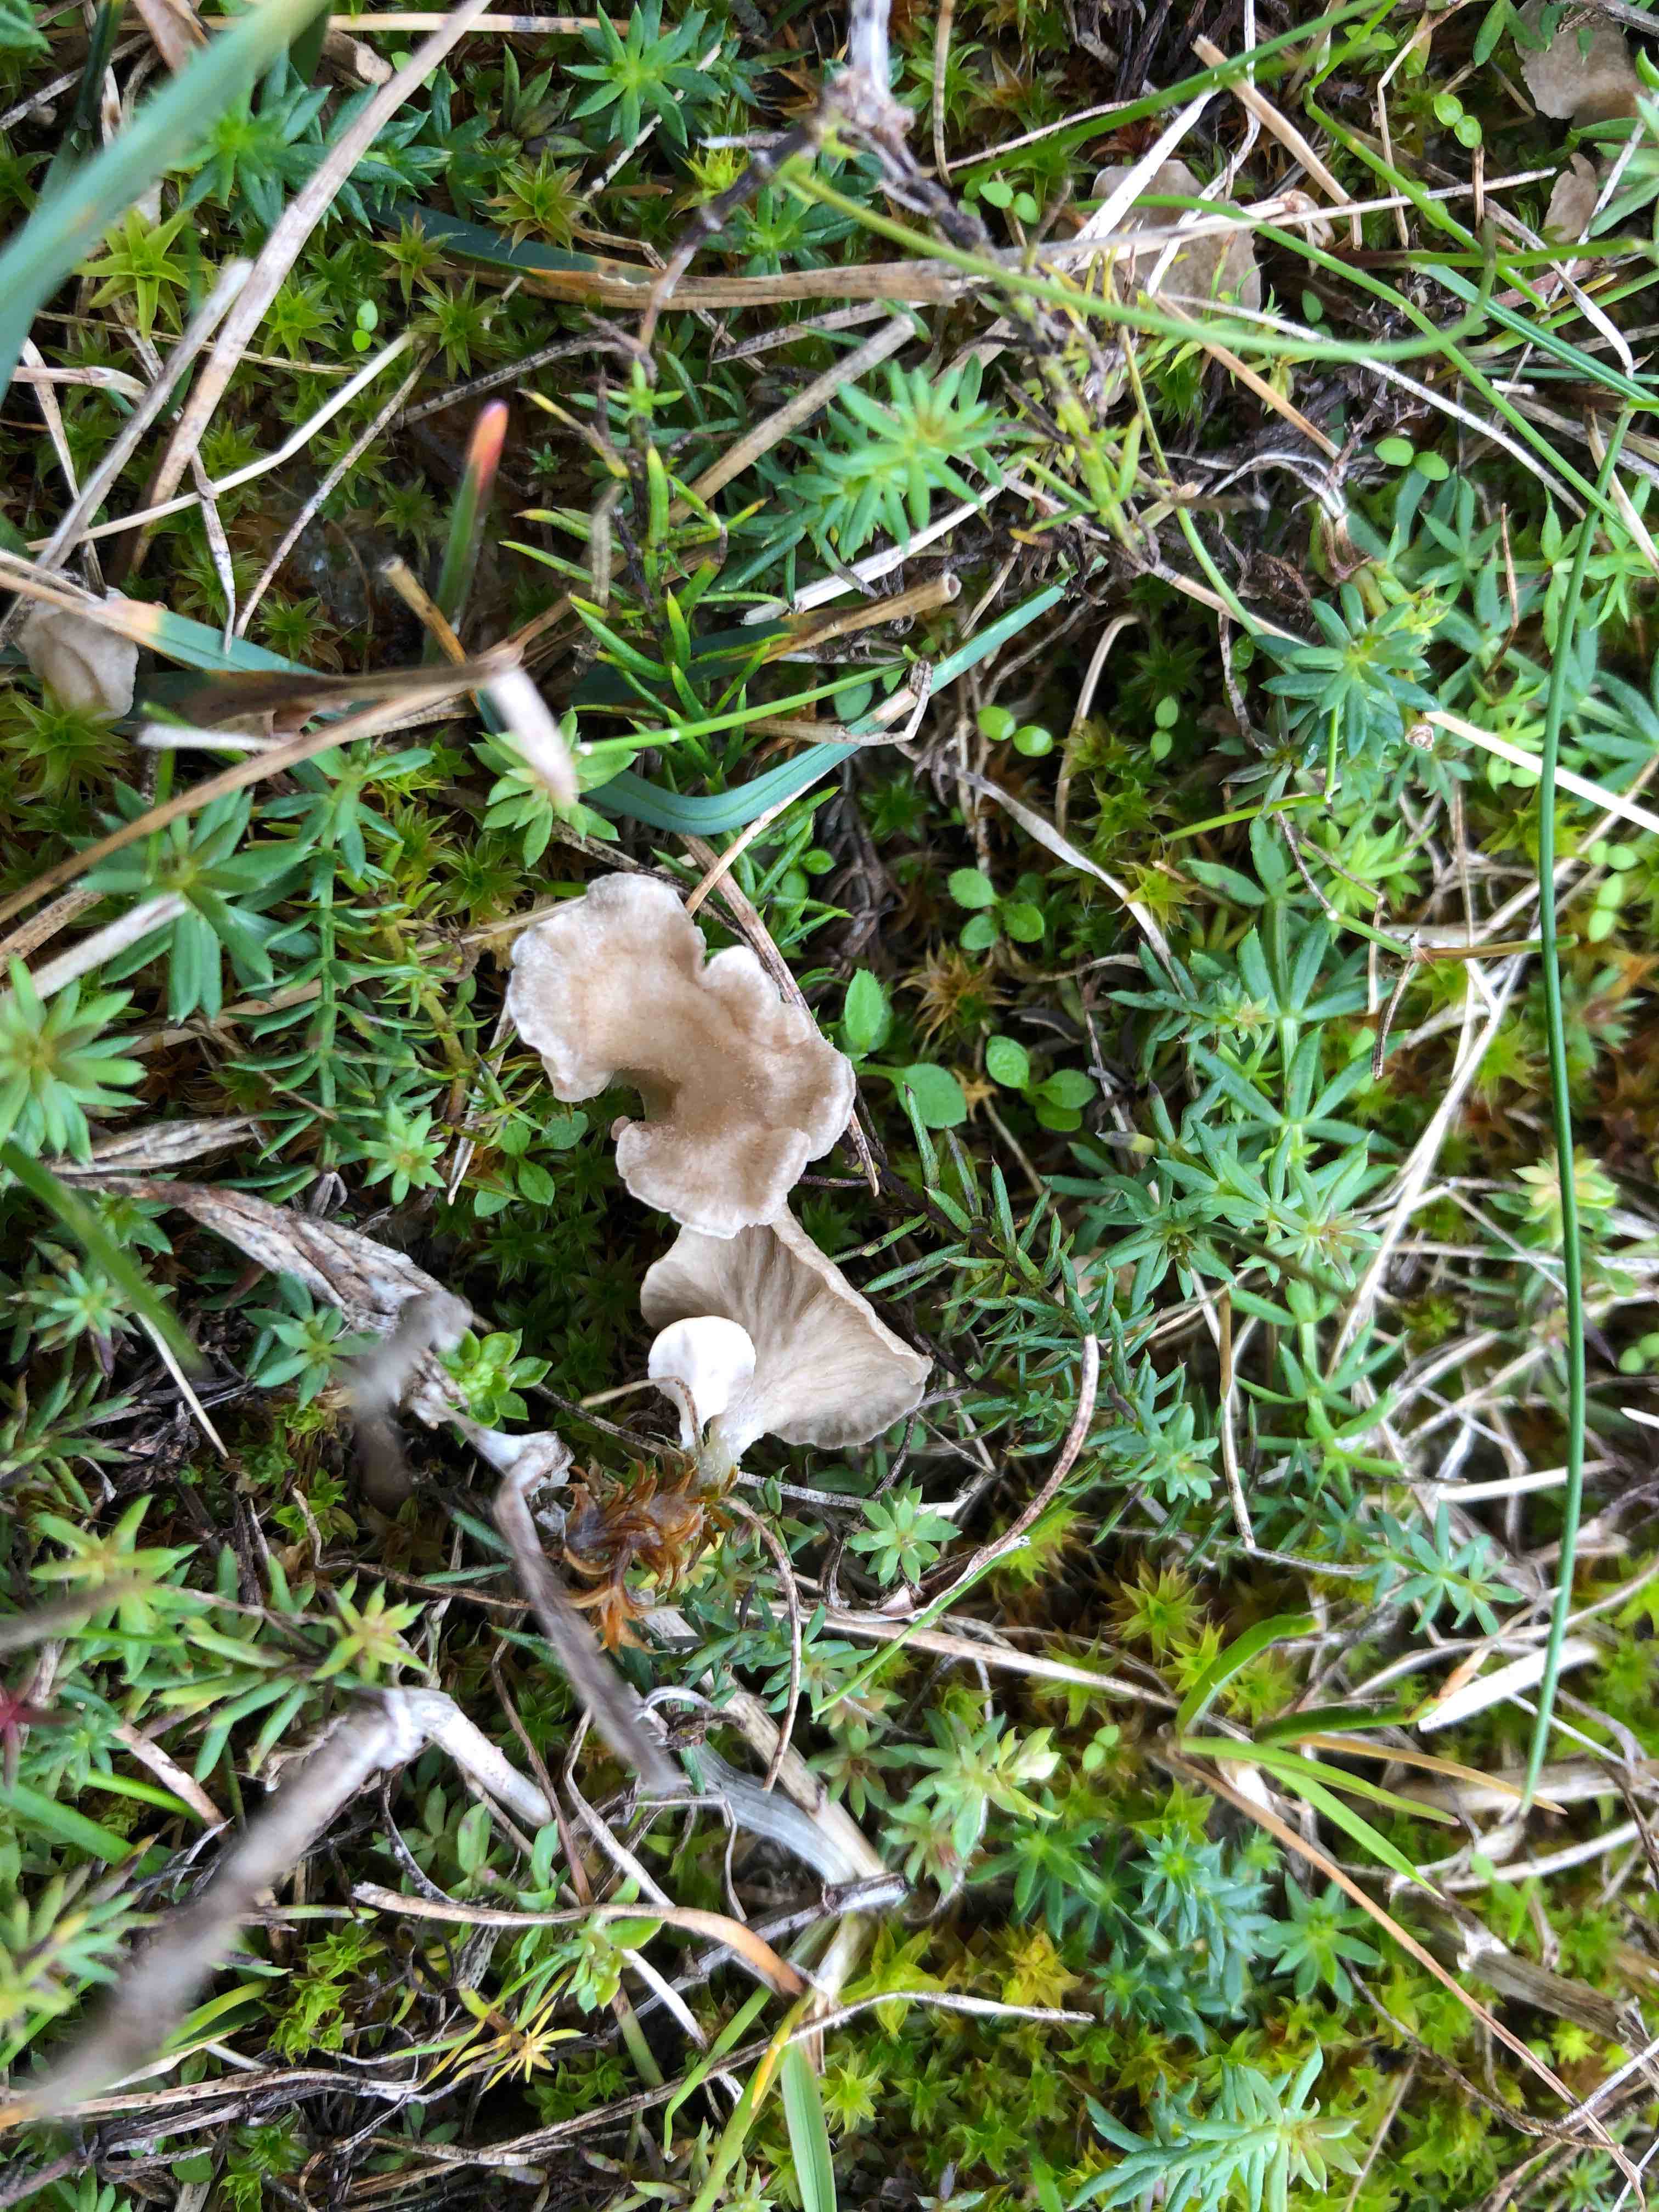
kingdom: Fungi
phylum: Basidiomycota
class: Agaricomycetes
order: Agaricales
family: Hygrophoraceae
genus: Arrhenia
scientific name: Arrhenia spathulata
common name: skæv fontænehat
